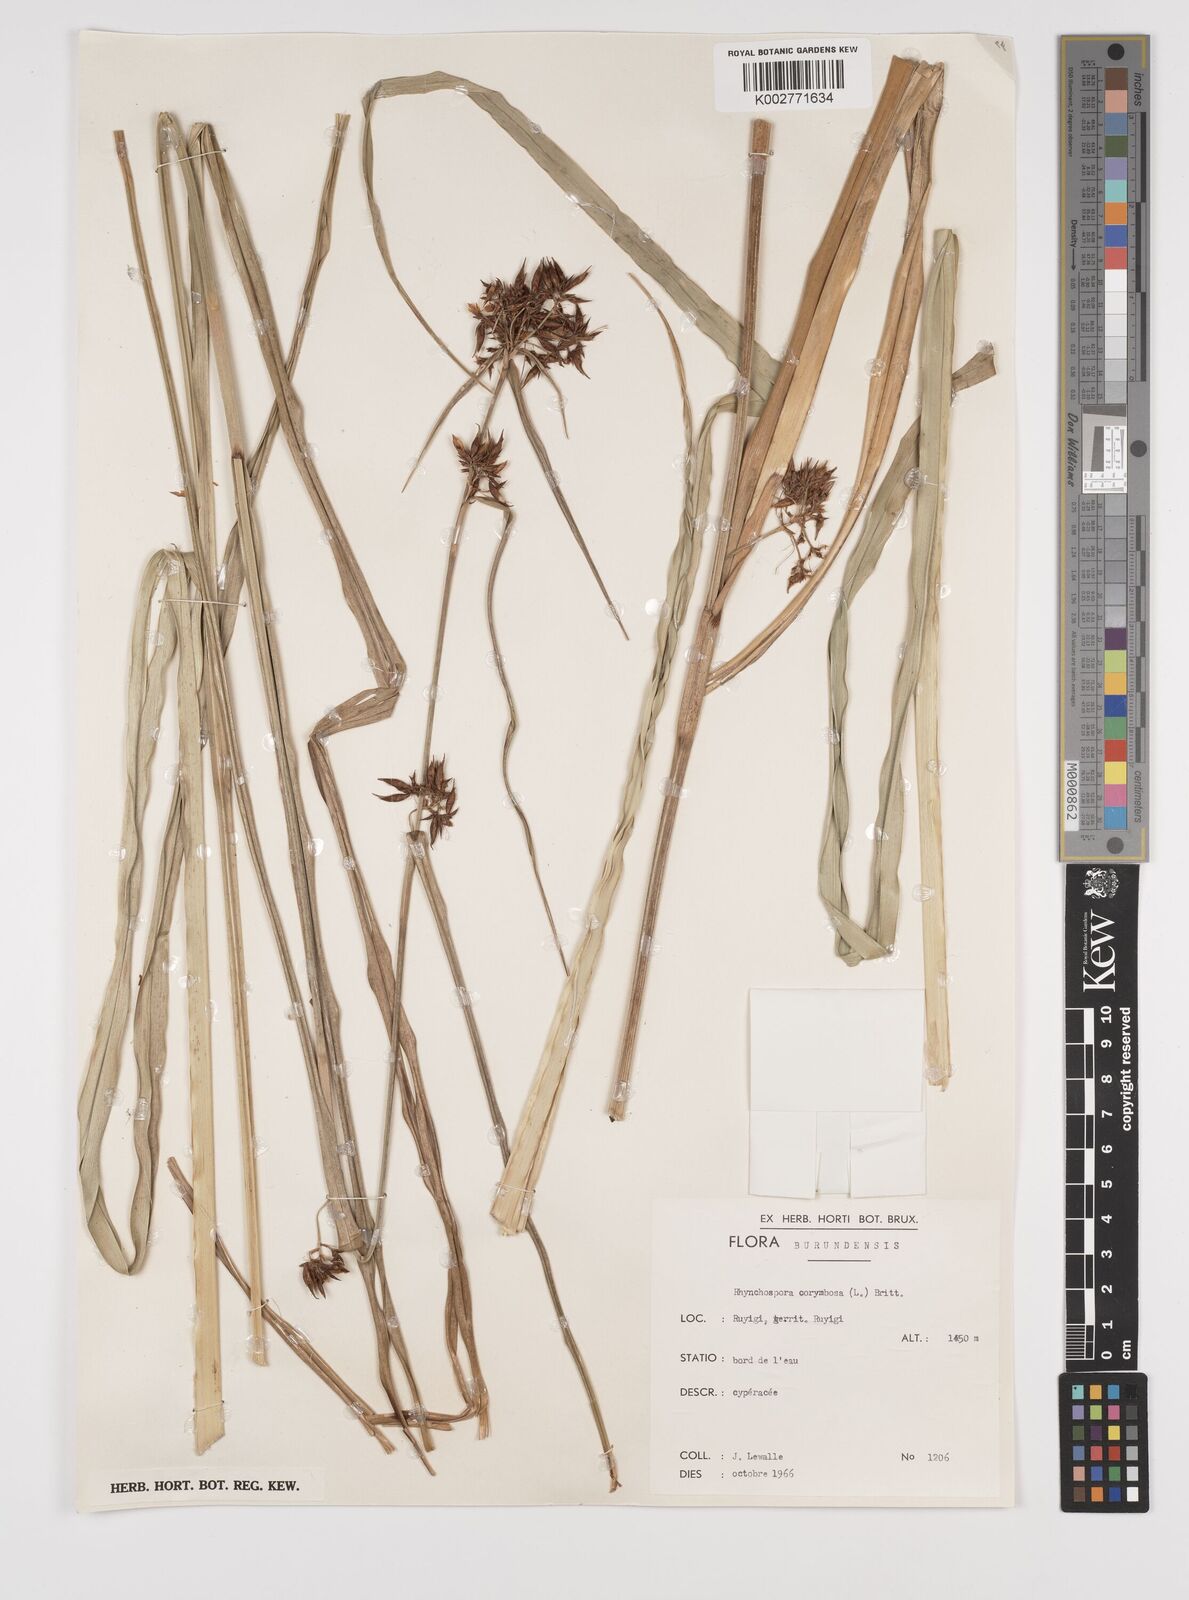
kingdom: Plantae
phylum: Tracheophyta
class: Liliopsida
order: Poales
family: Cyperaceae
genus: Rhynchospora
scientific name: Rhynchospora corymbosa
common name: Golden beak sedge
